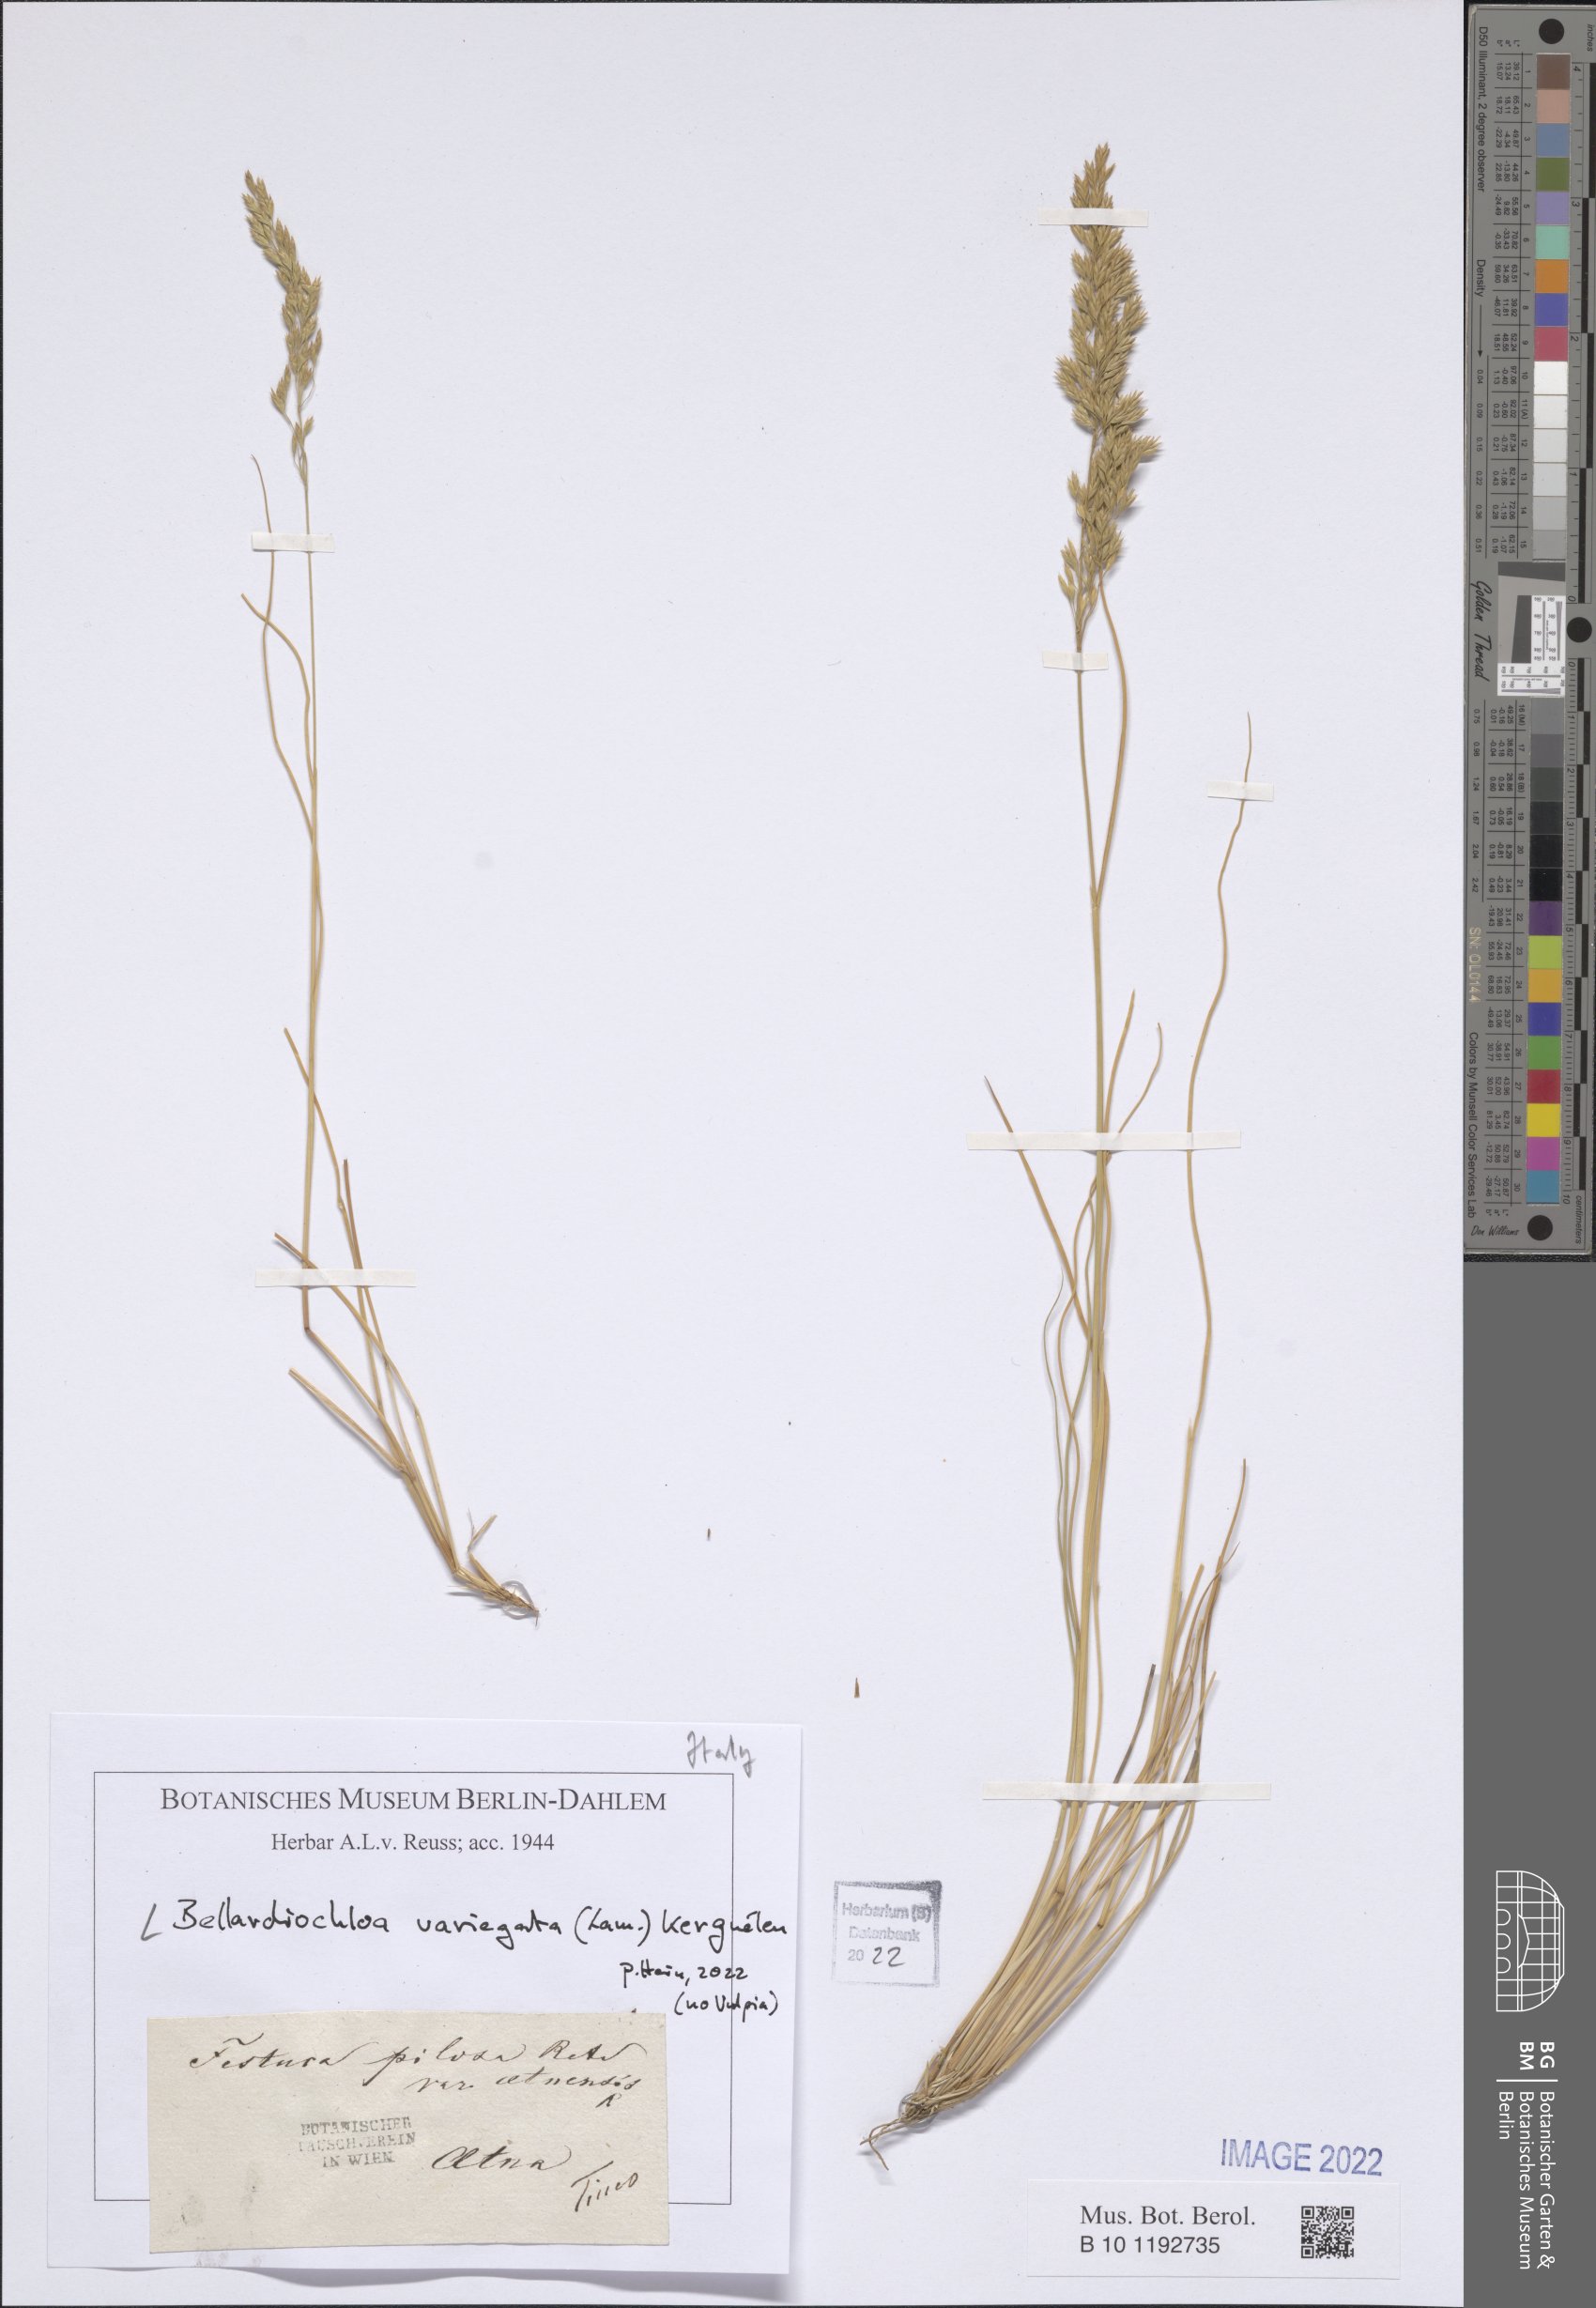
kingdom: Plantae
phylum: Tracheophyta
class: Liliopsida
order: Poales
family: Poaceae
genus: Bellardiochloa
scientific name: Bellardiochloa variegata
